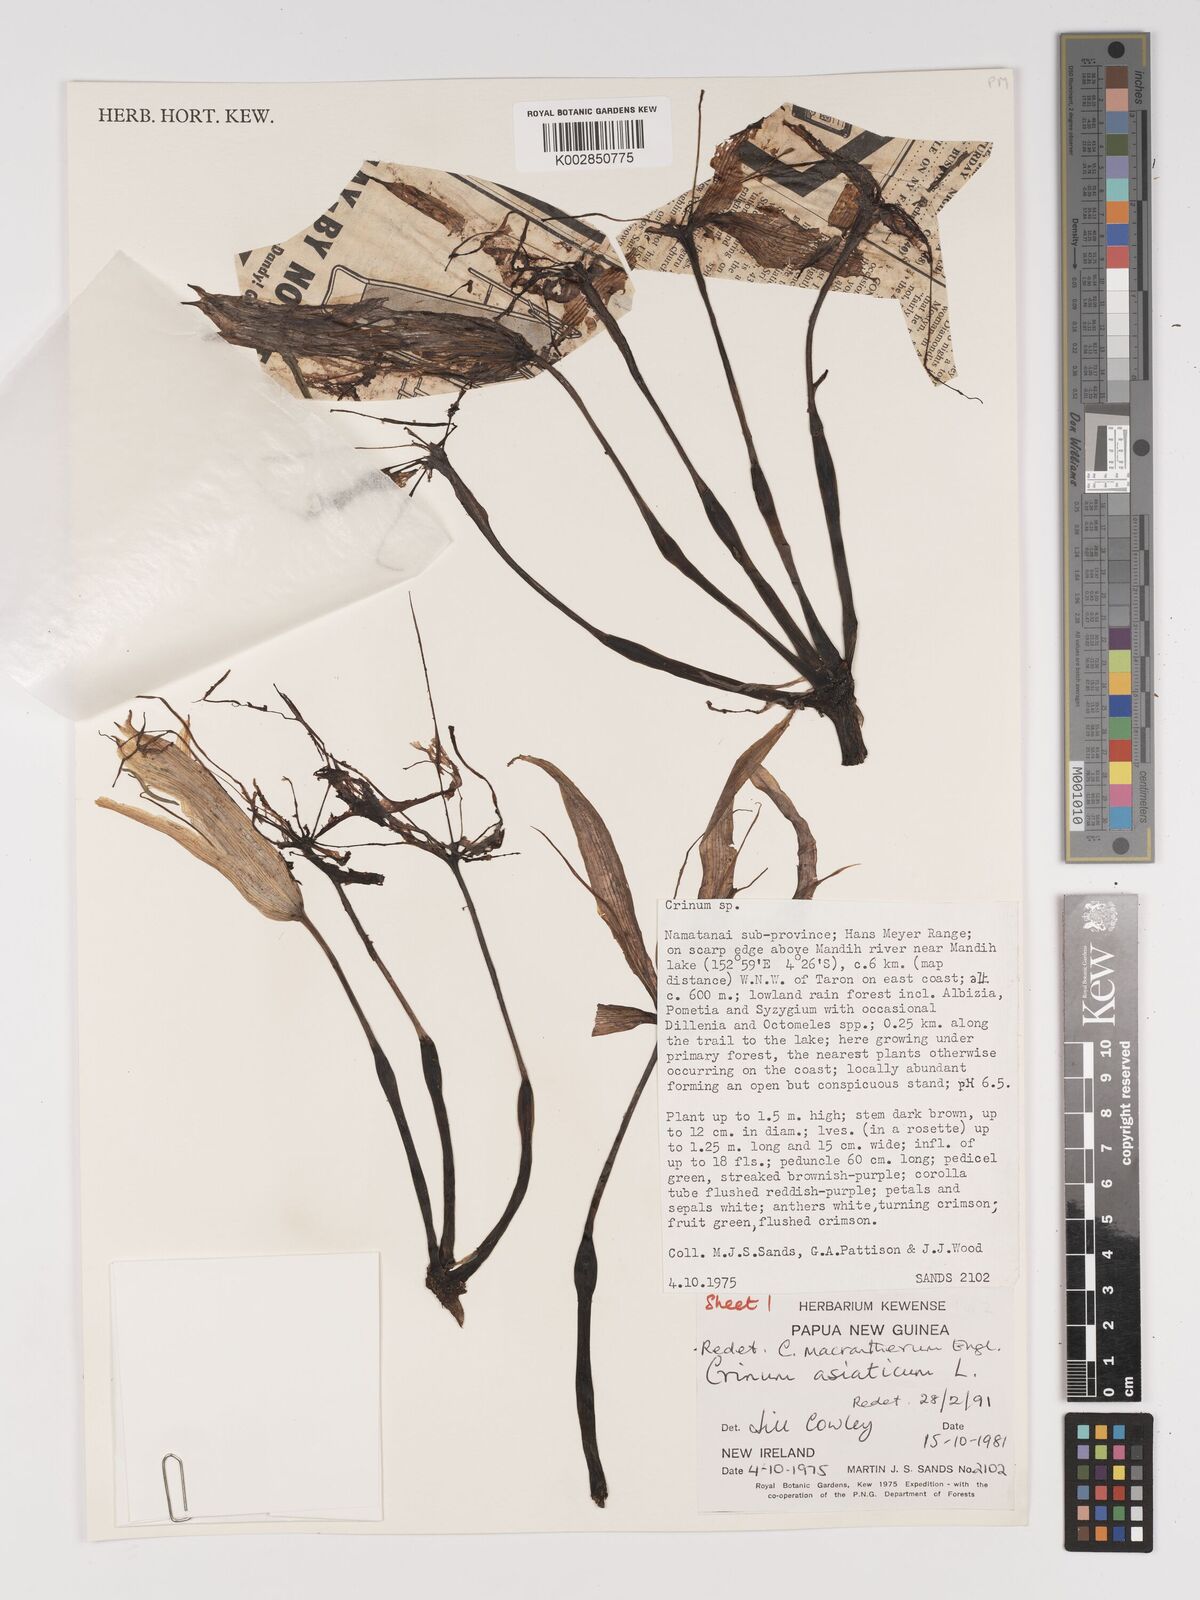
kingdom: Plantae
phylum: Tracheophyta
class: Liliopsida
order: Asparagales
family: Amaryllidaceae
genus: Crinum
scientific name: Crinum asiaticum
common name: Poisonbulb
